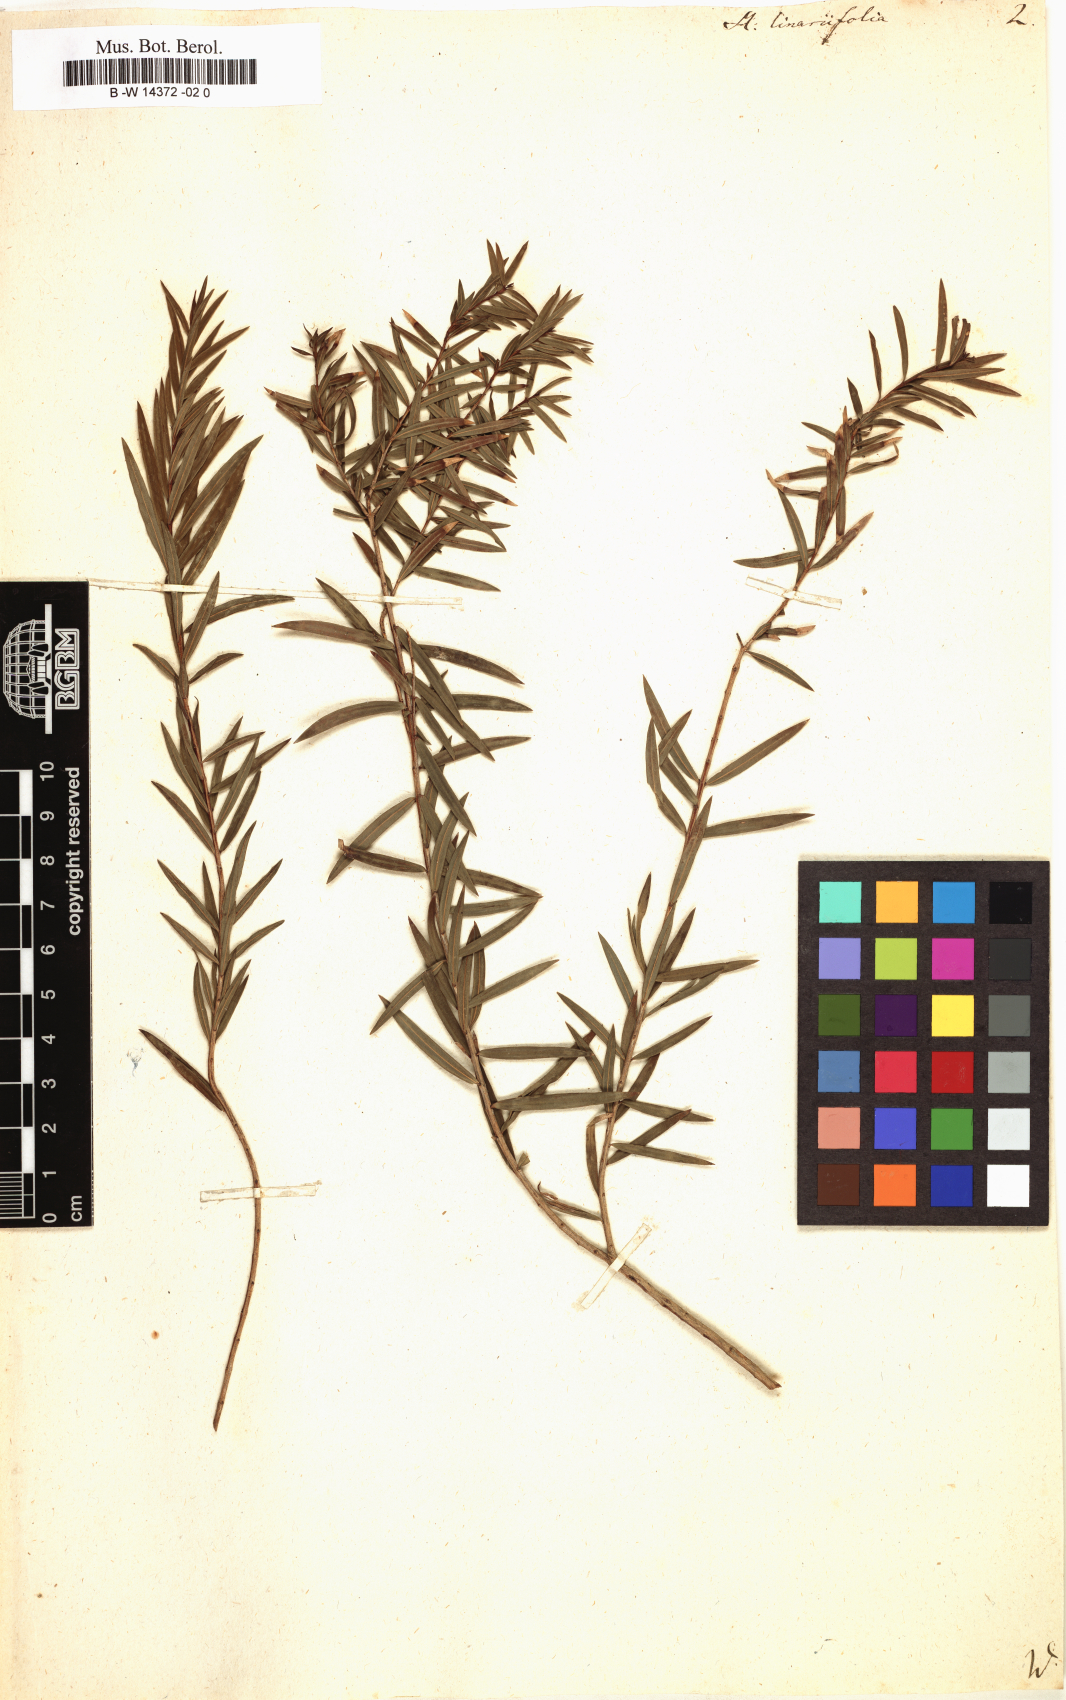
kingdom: Plantae
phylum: Tracheophyta
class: Magnoliopsida
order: Myrtales
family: Myrtaceae
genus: Melaleuca
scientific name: Melaleuca linariifolia
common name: Cajeput tree
